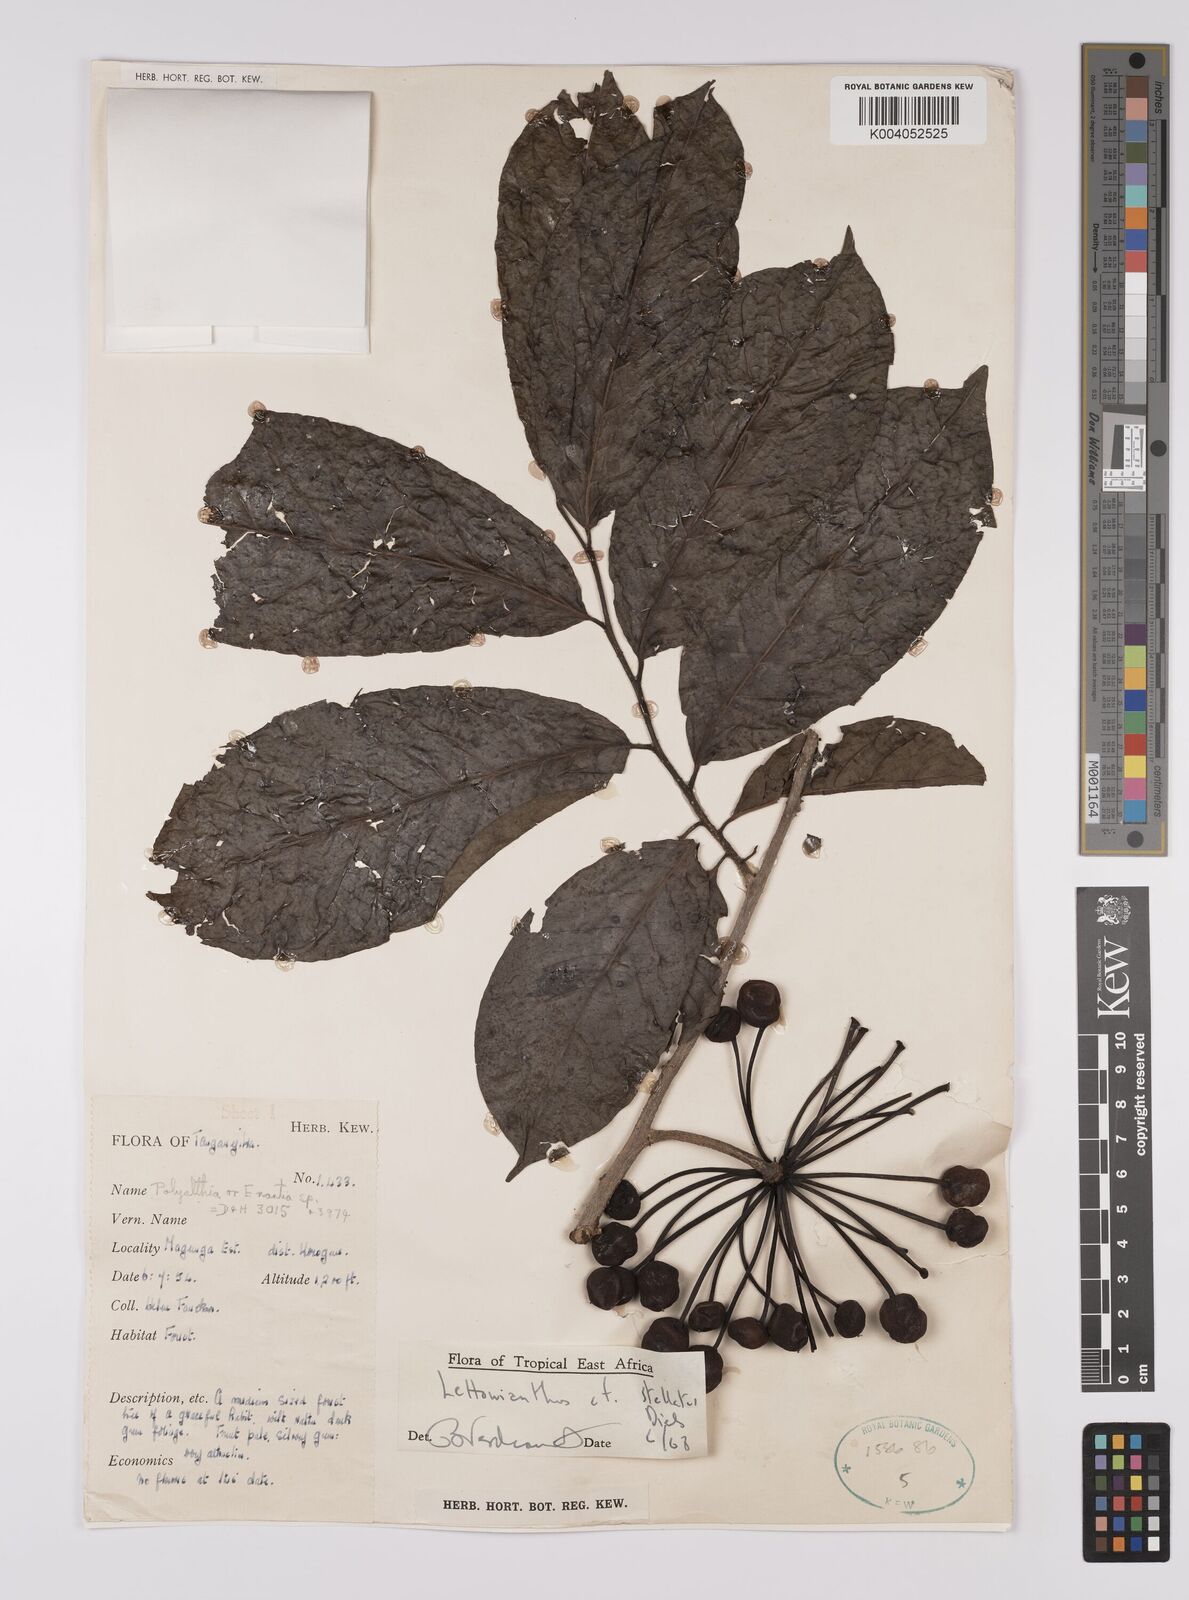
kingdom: Plantae
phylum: Tracheophyta
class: Magnoliopsida
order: Magnoliales
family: Annonaceae
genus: Lettowianthus
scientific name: Lettowianthus stellatus
